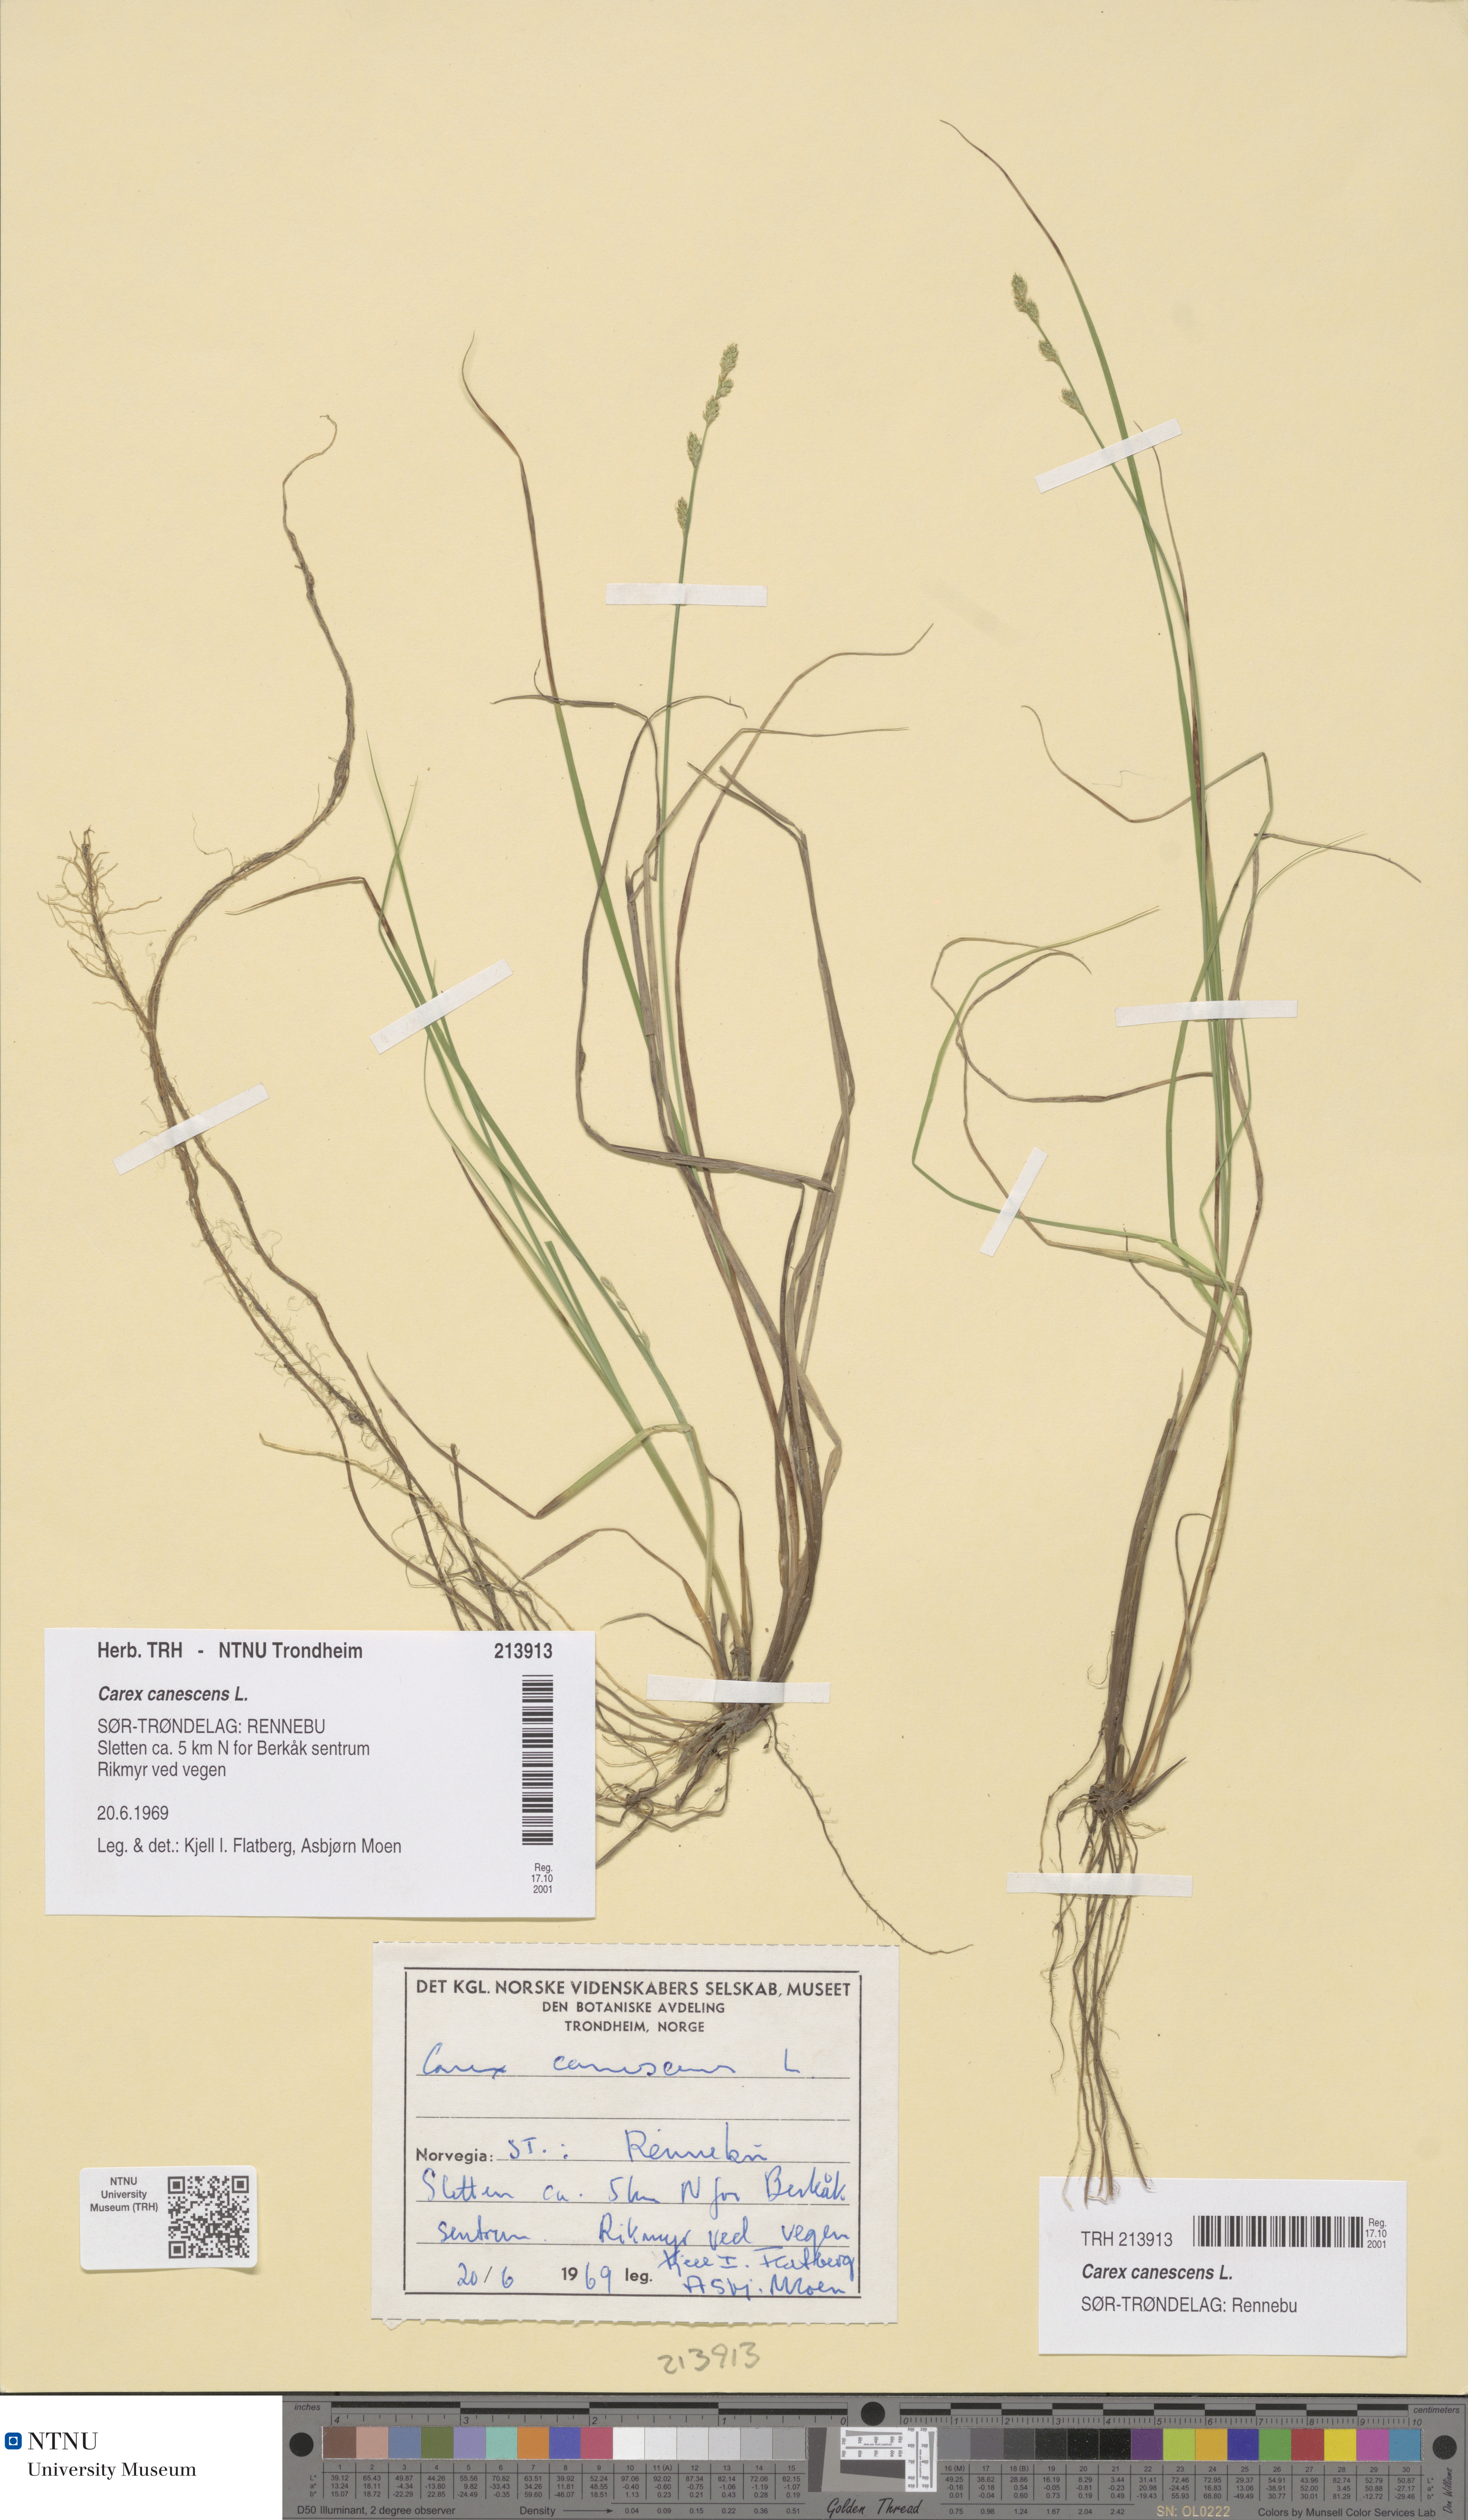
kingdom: Plantae
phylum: Tracheophyta
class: Liliopsida
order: Poales
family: Cyperaceae
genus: Carex
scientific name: Carex canescens
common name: White sedge
